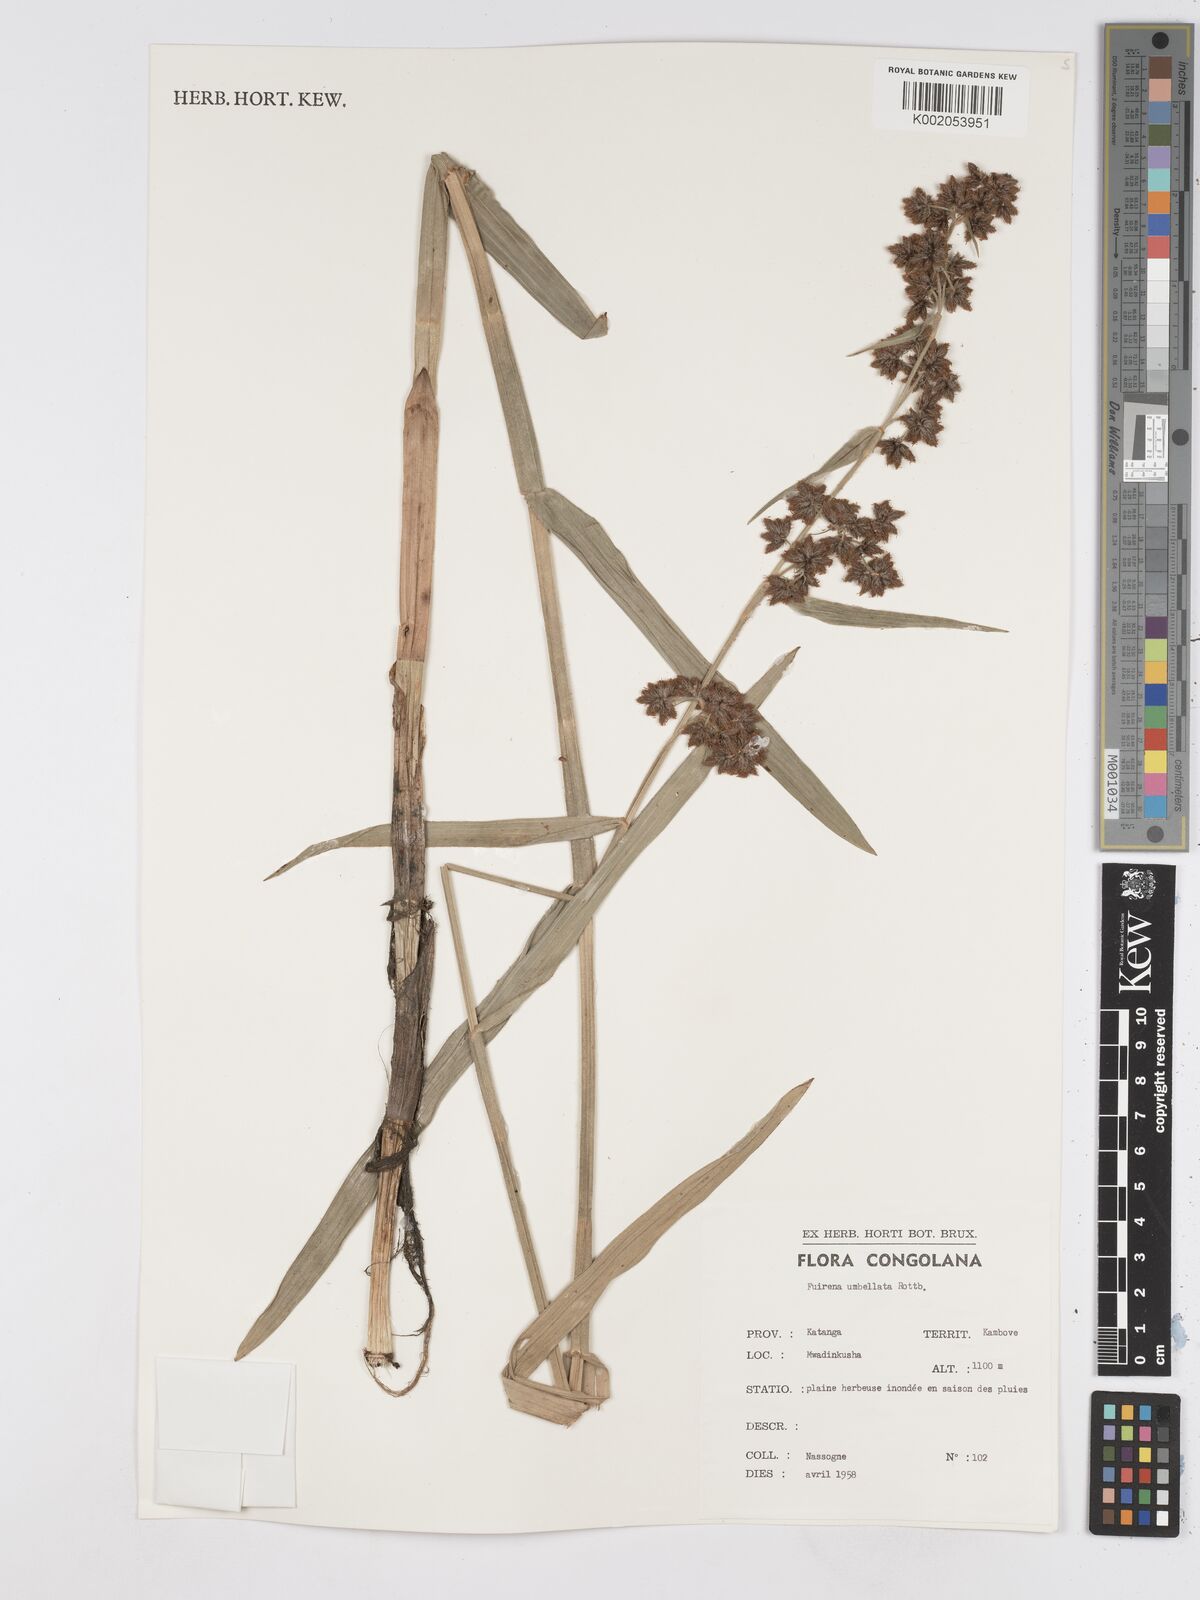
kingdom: Plantae
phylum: Tracheophyta
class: Liliopsida
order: Poales
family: Cyperaceae
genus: Fuirena
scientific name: Fuirena umbellata
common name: Yefen
